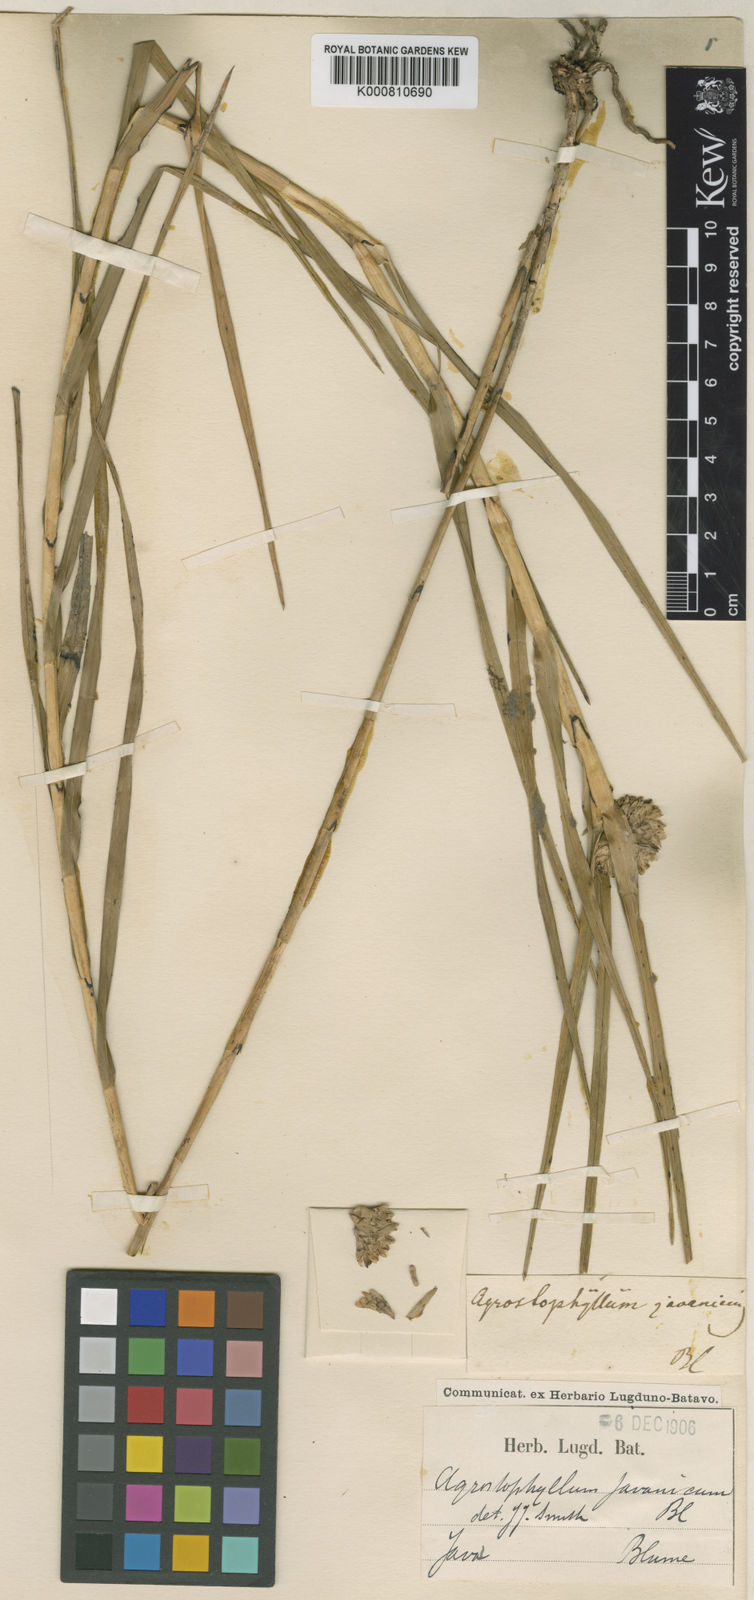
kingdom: Plantae
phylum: Tracheophyta
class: Liliopsida
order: Asparagales
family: Orchidaceae
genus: Agrostophyllum
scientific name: Agrostophyllum javanicum
